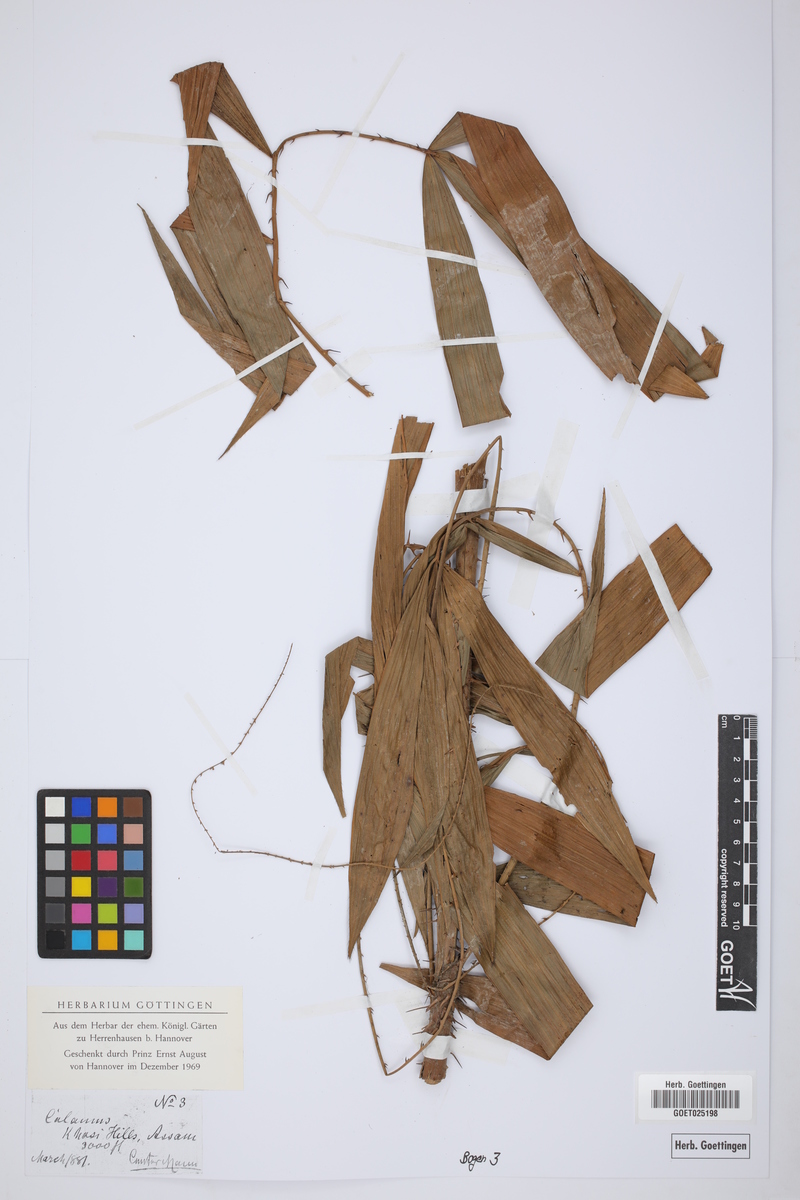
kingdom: Plantae
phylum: Tracheophyta
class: Liliopsida
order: Arecales
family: Arecaceae
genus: Calamus
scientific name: Calamus
